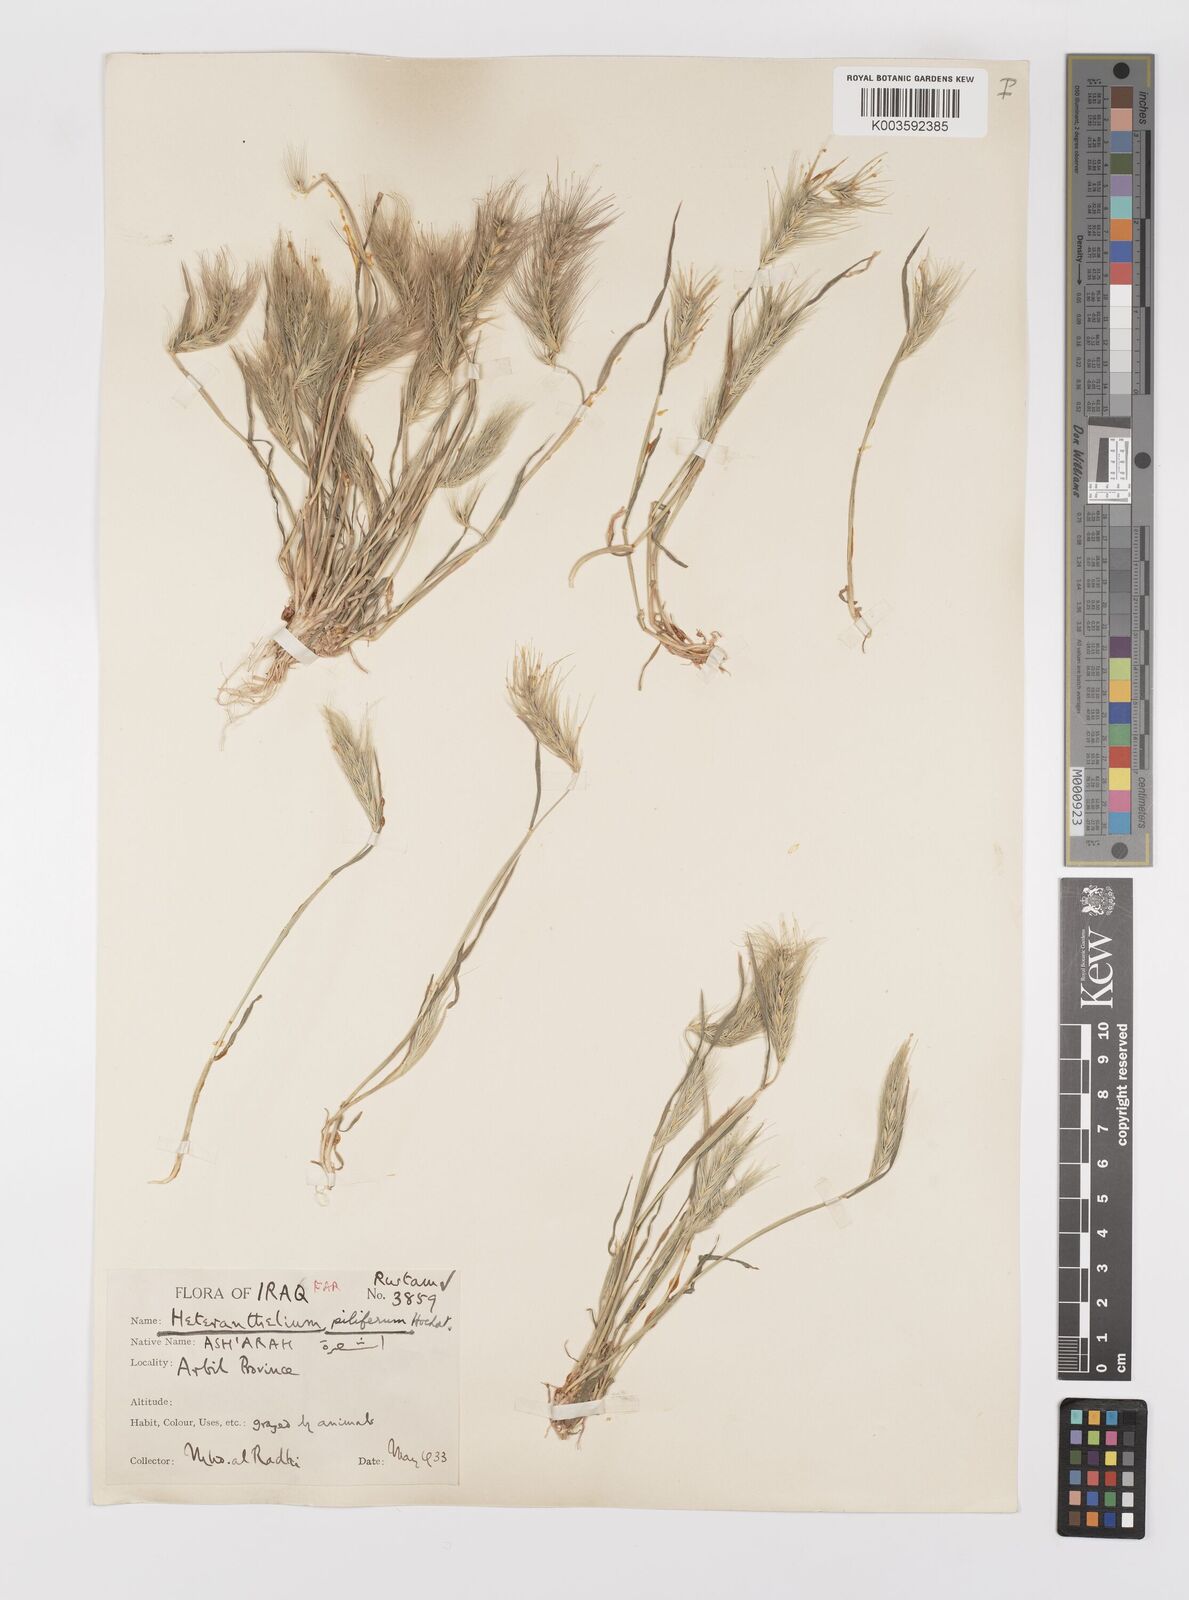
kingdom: Plantae
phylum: Tracheophyta
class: Liliopsida
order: Poales
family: Poaceae
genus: Heteranthelium
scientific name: Heteranthelium piliferum
